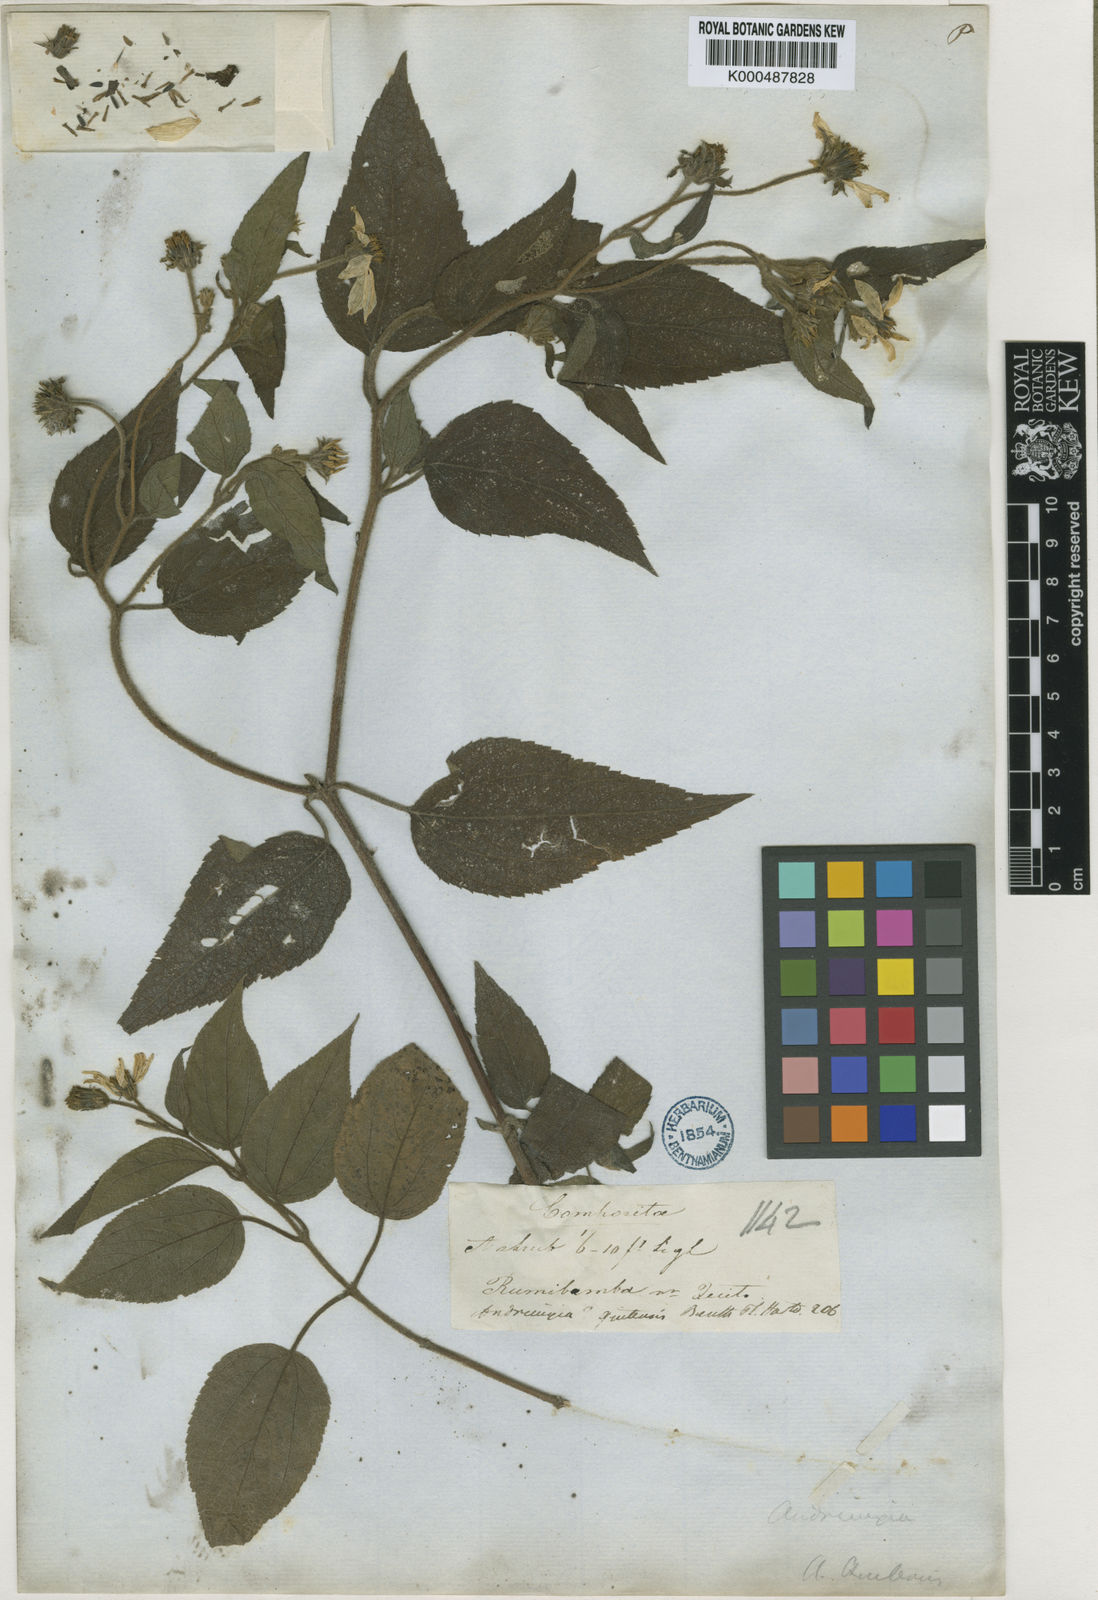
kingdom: Plantae
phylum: Tracheophyta
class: Magnoliopsida
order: Asterales
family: Asteraceae
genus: Hymenostephium
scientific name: Hymenostephium quitensis
